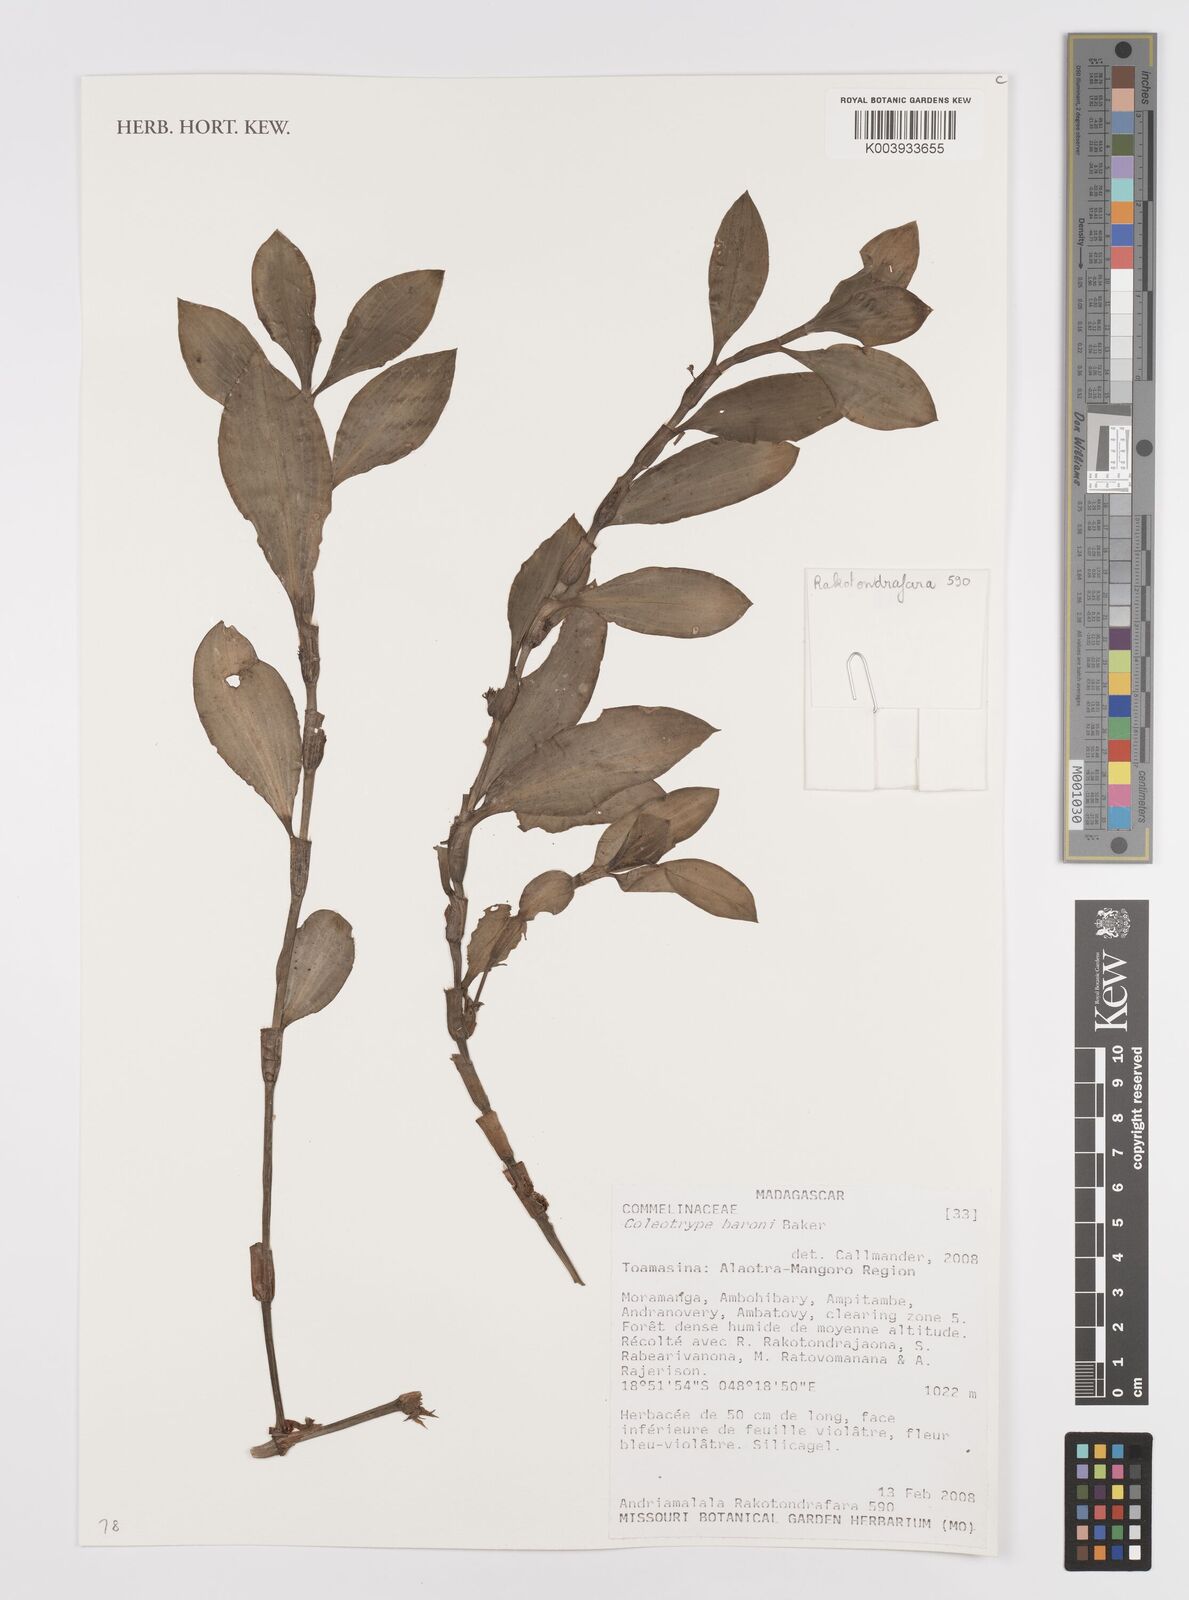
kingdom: Plantae
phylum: Tracheophyta
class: Liliopsida
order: Commelinales
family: Commelinaceae
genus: Coleotrype
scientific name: Coleotrype baronii
